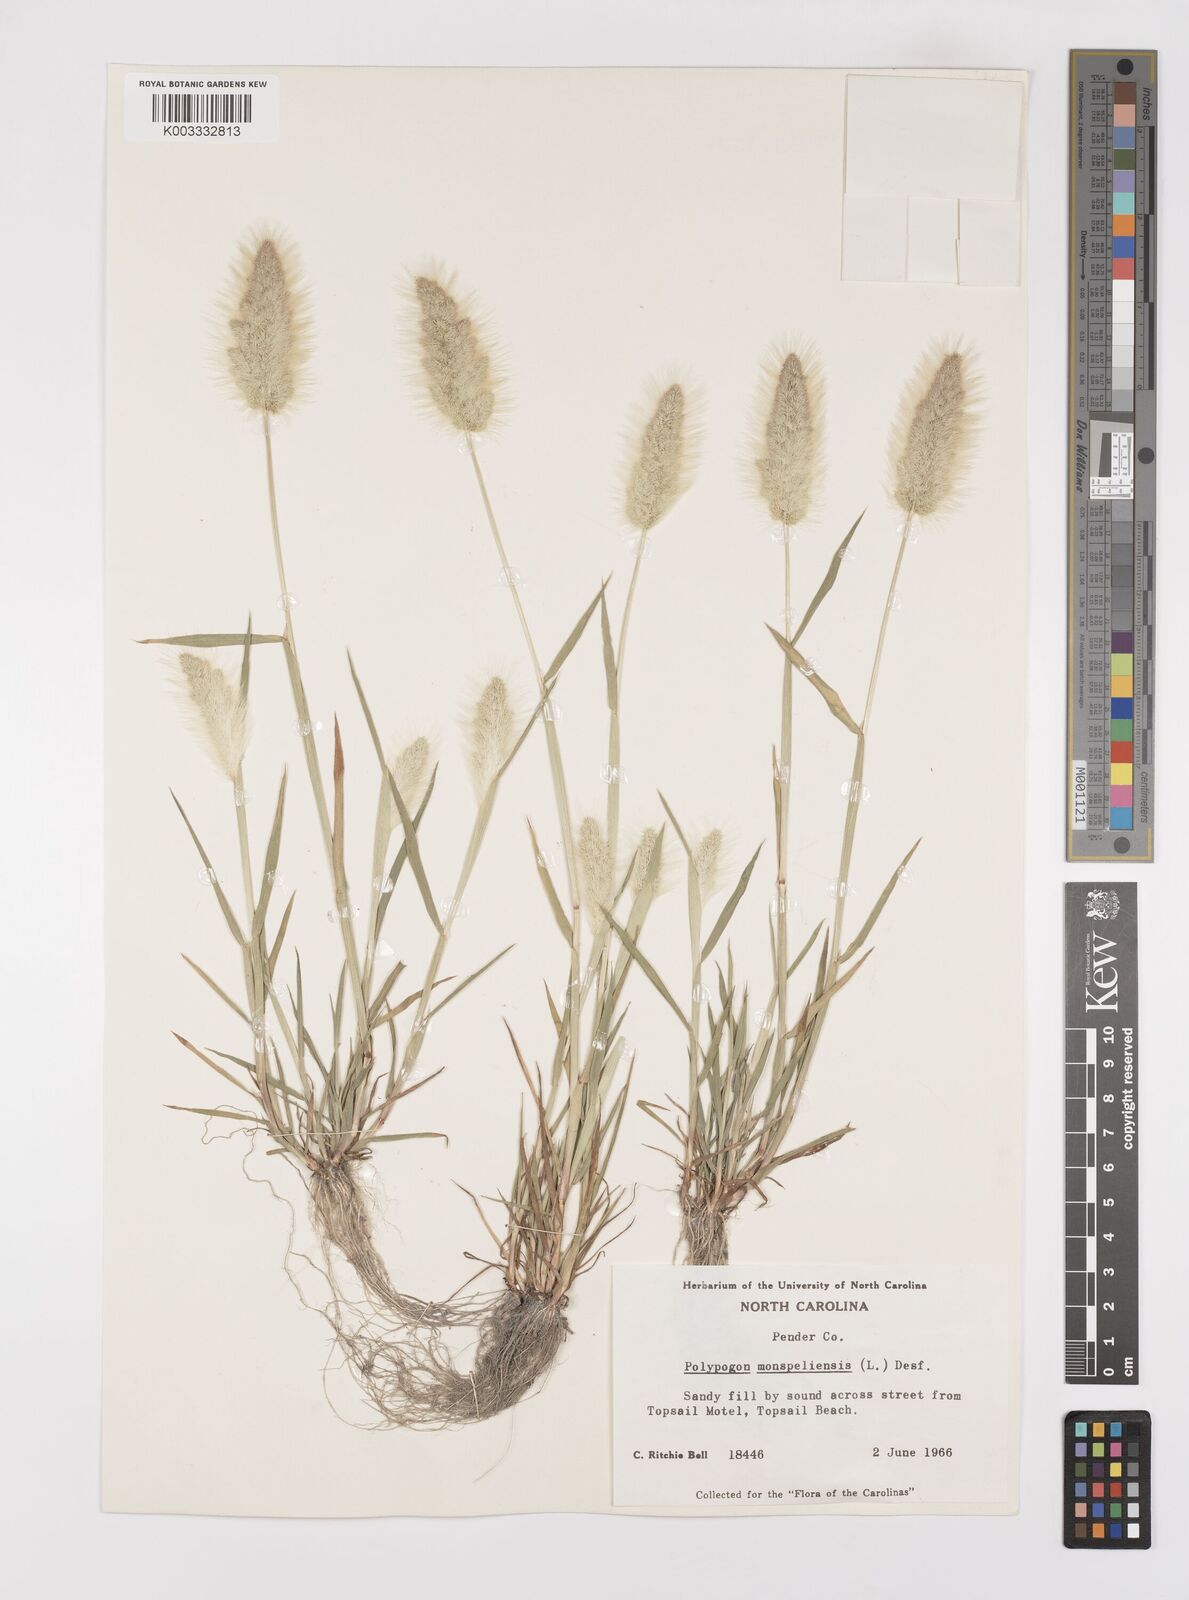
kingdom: Plantae
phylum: Tracheophyta
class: Liliopsida
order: Poales
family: Poaceae
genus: Polypogon
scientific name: Polypogon monspeliensis
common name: Annual rabbitsfoot grass
